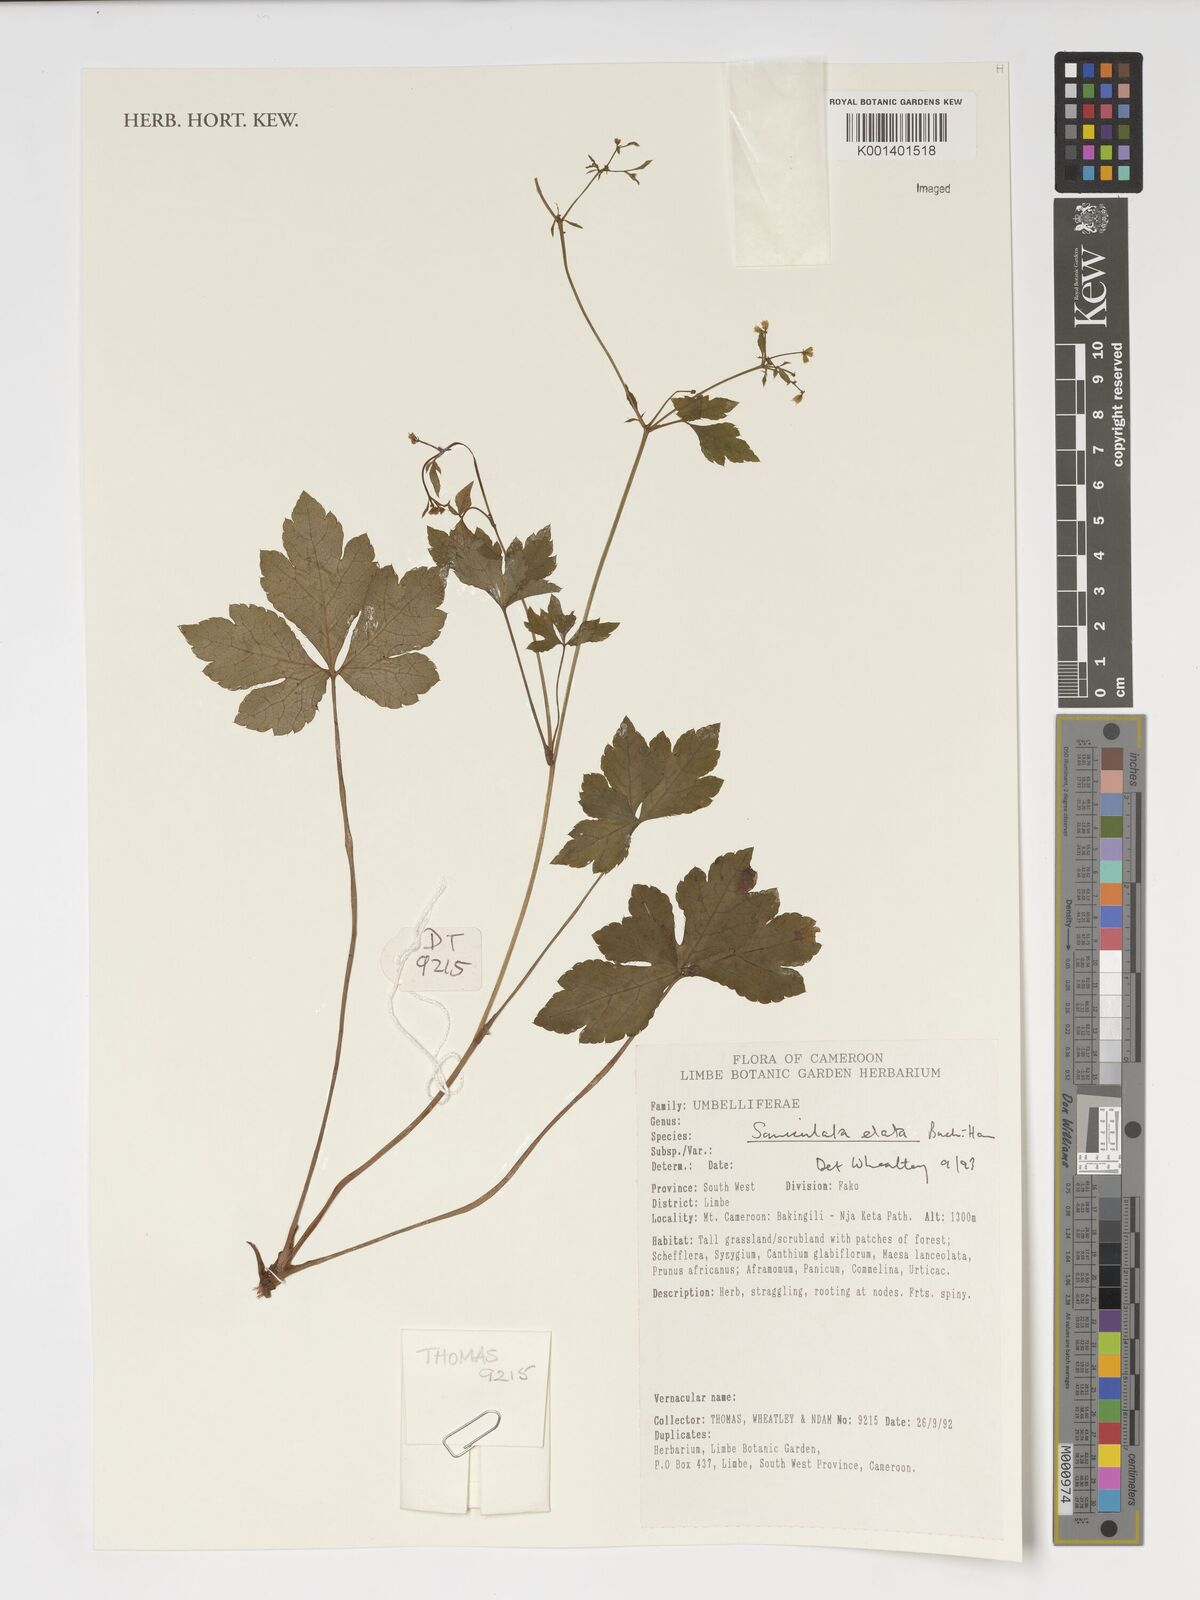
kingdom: Plantae
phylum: Tracheophyta
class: Magnoliopsida
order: Apiales
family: Apiaceae
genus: Sanicula
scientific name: Sanicula elata
